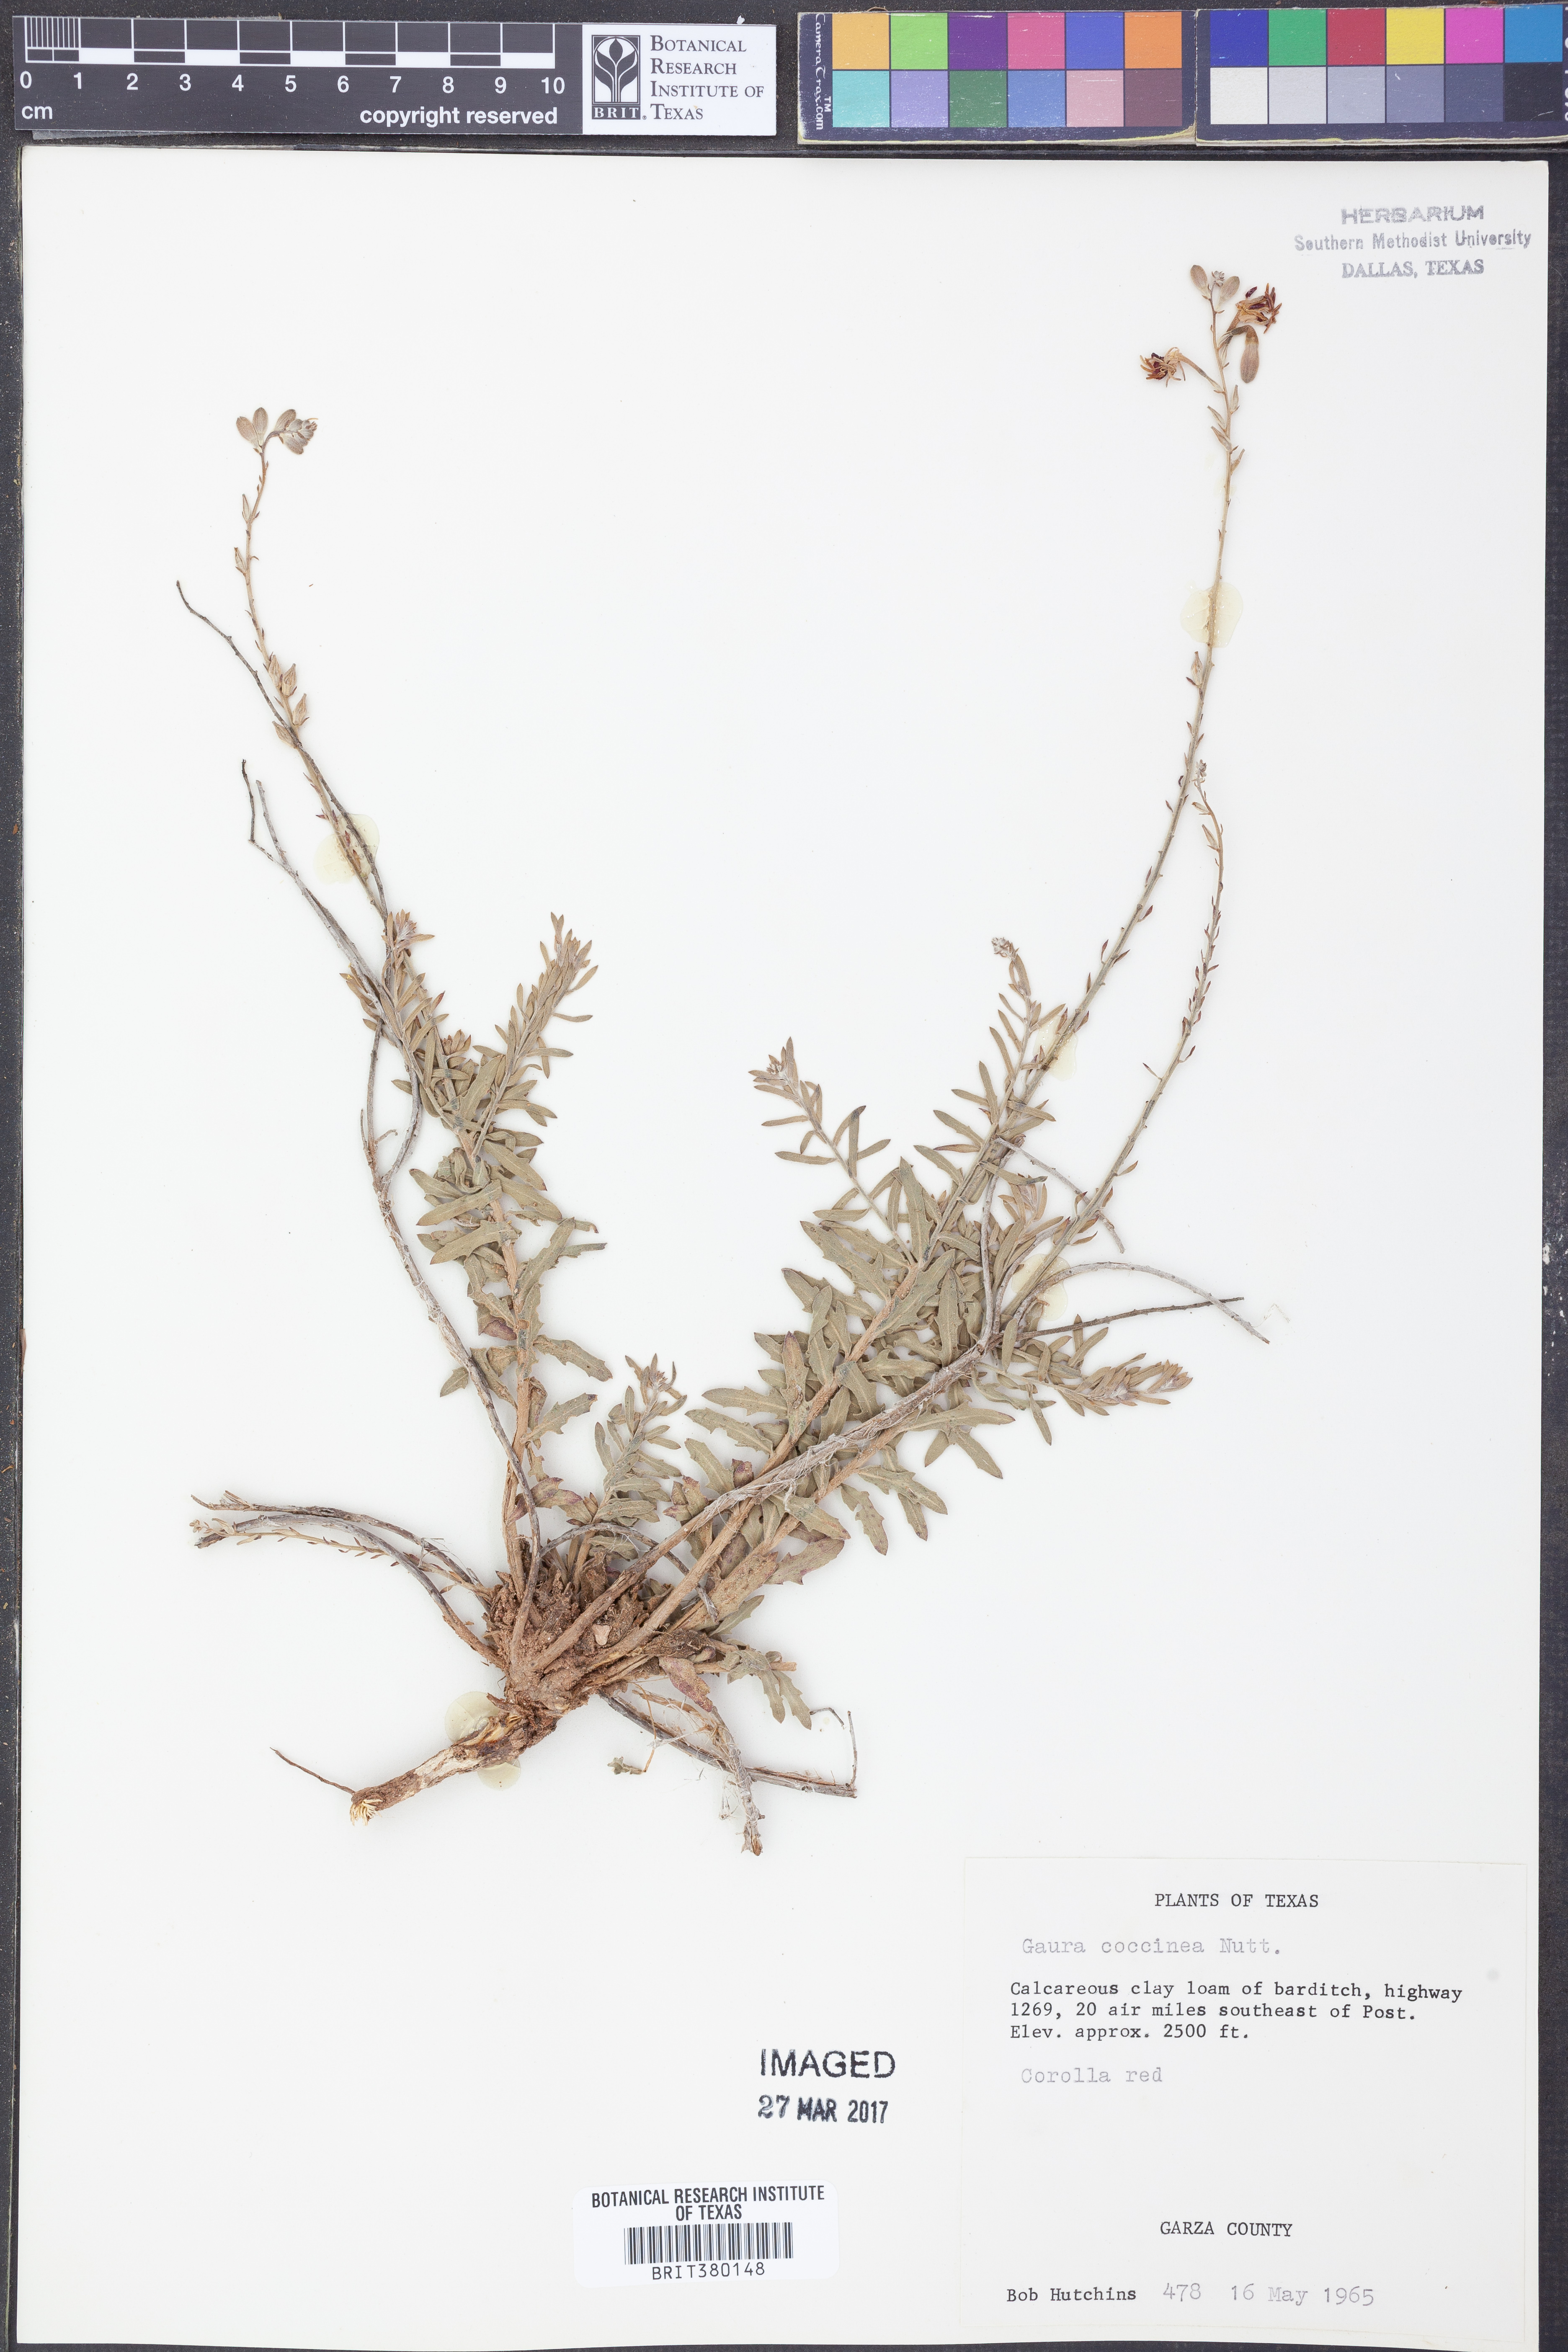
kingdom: Plantae
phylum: Tracheophyta
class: Magnoliopsida
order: Myrtales
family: Onagraceae
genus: Oenothera
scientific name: Oenothera suffrutescens
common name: Scarlet beeblossom
